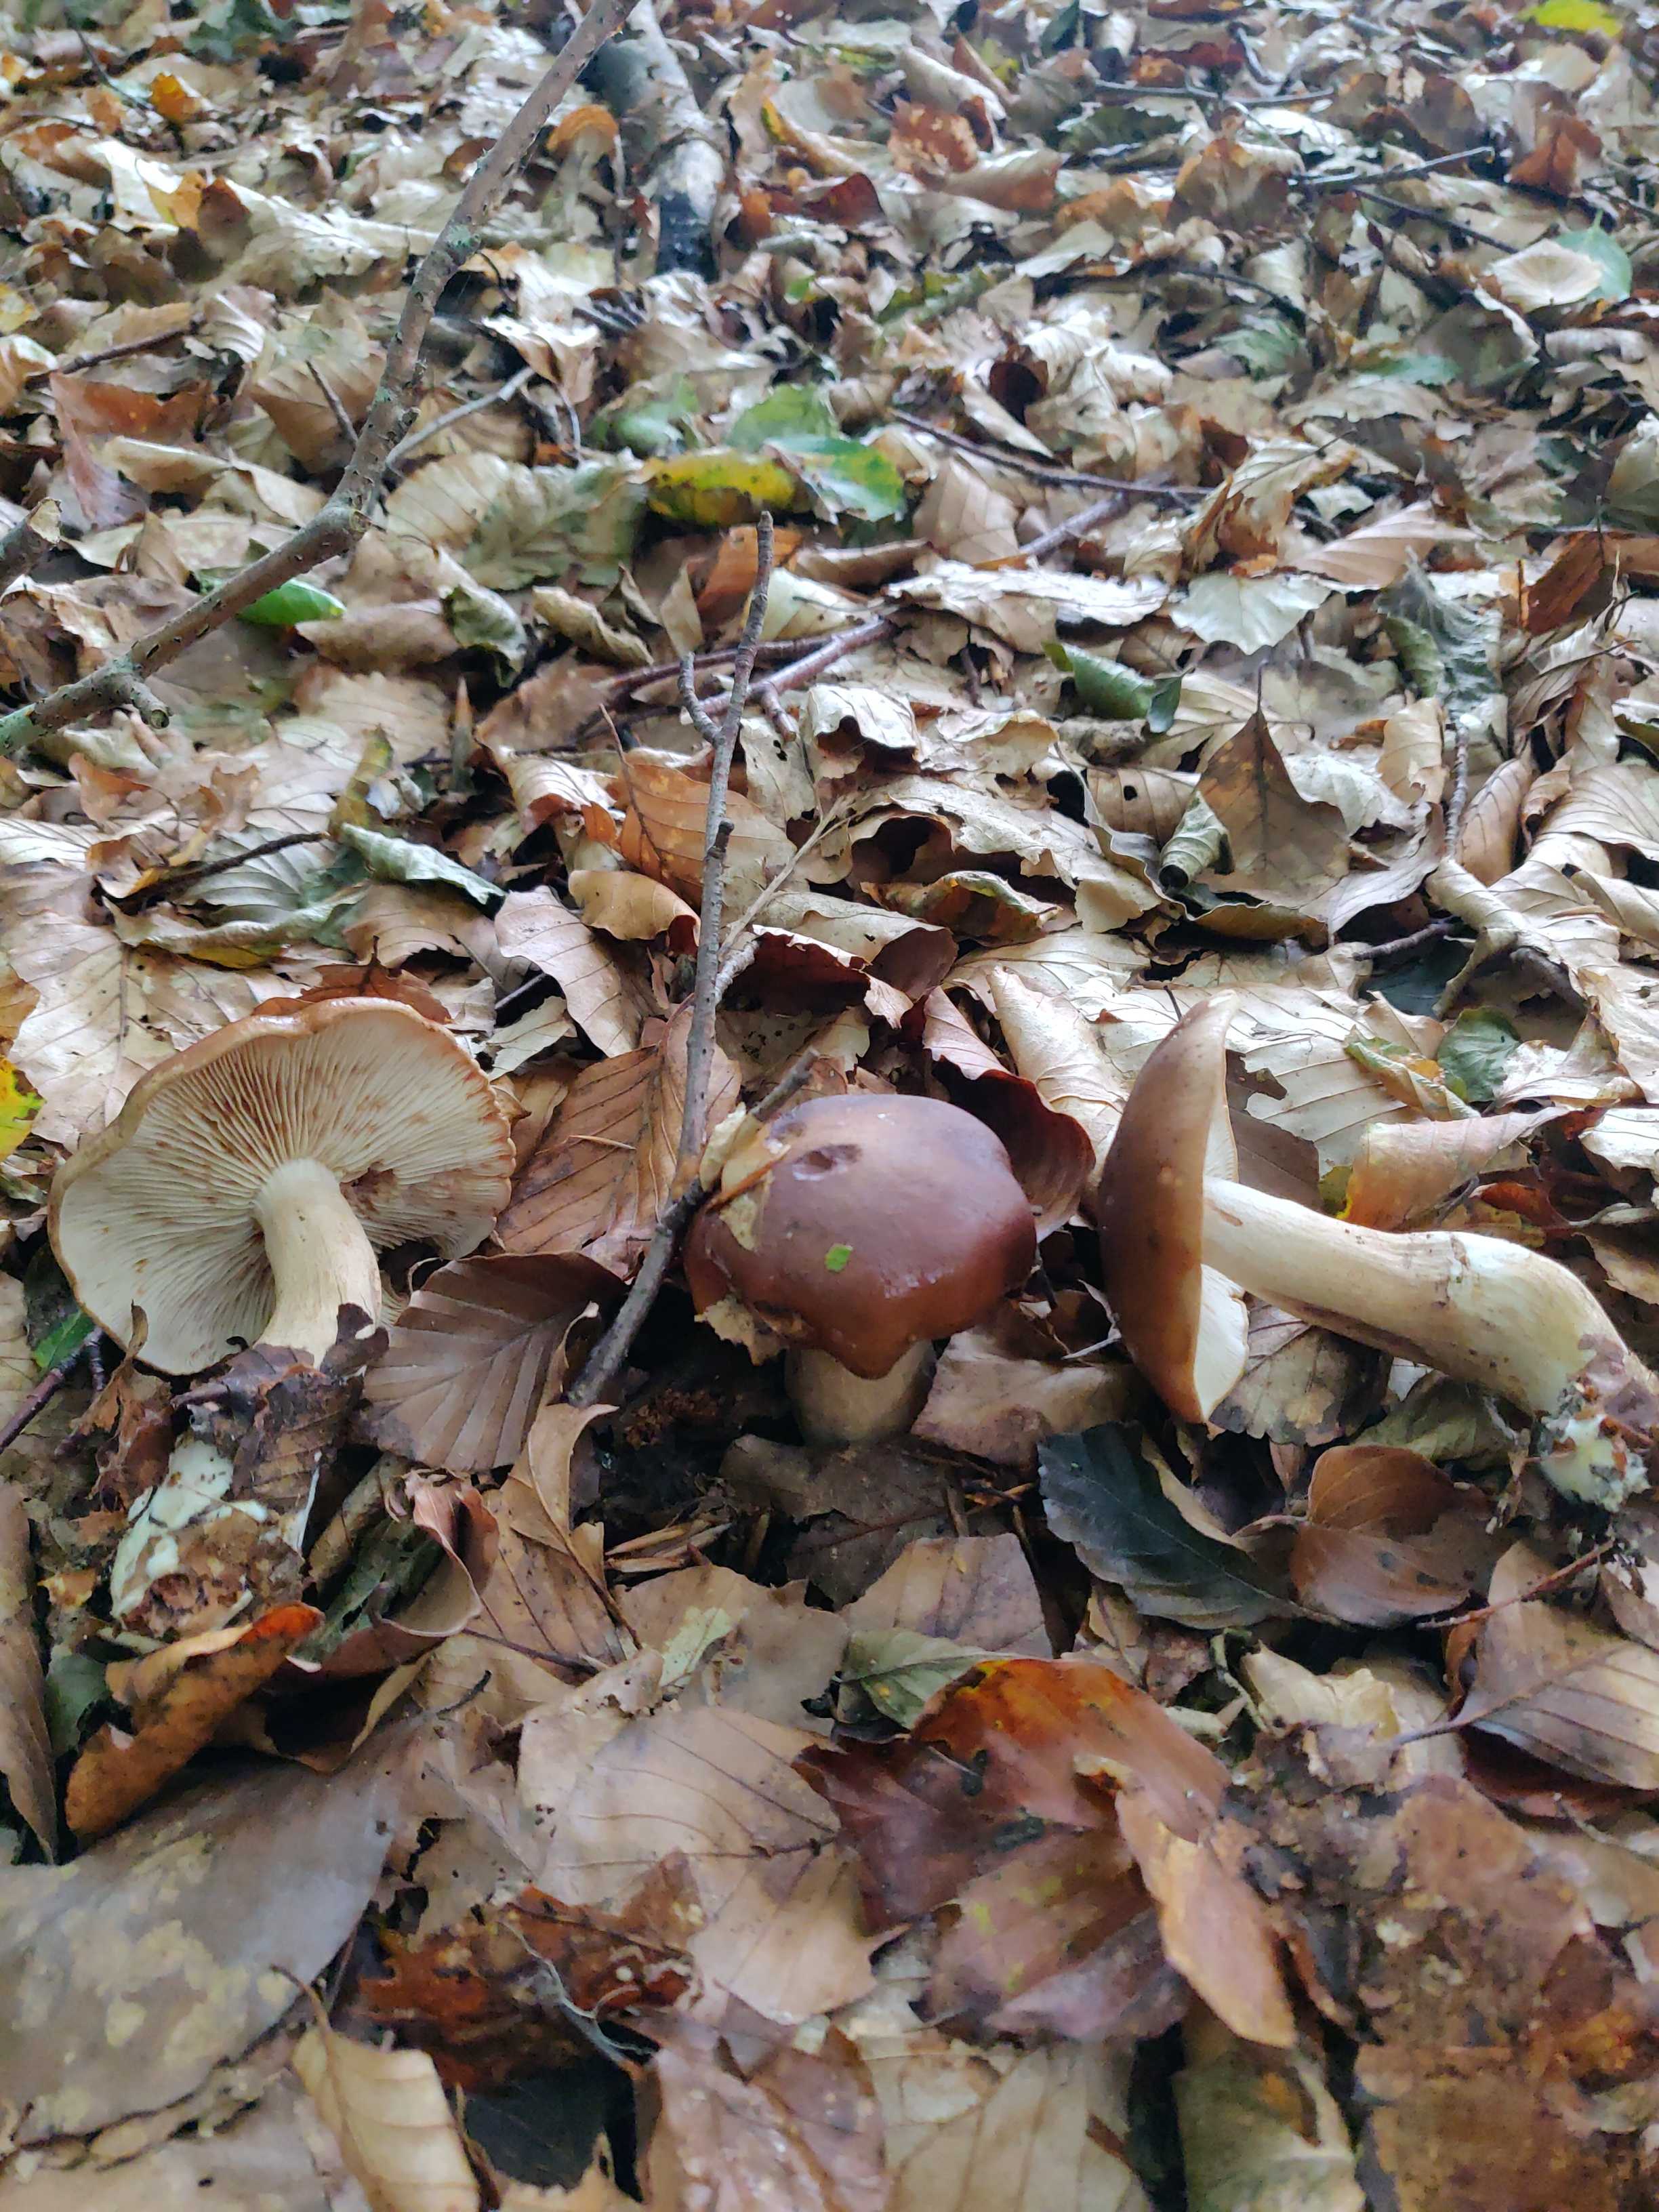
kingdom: Fungi
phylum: Basidiomycota
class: Agaricomycetes
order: Agaricales
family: Tricholomataceae
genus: Tricholoma
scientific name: Tricholoma ustale
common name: sveden ridderhat
